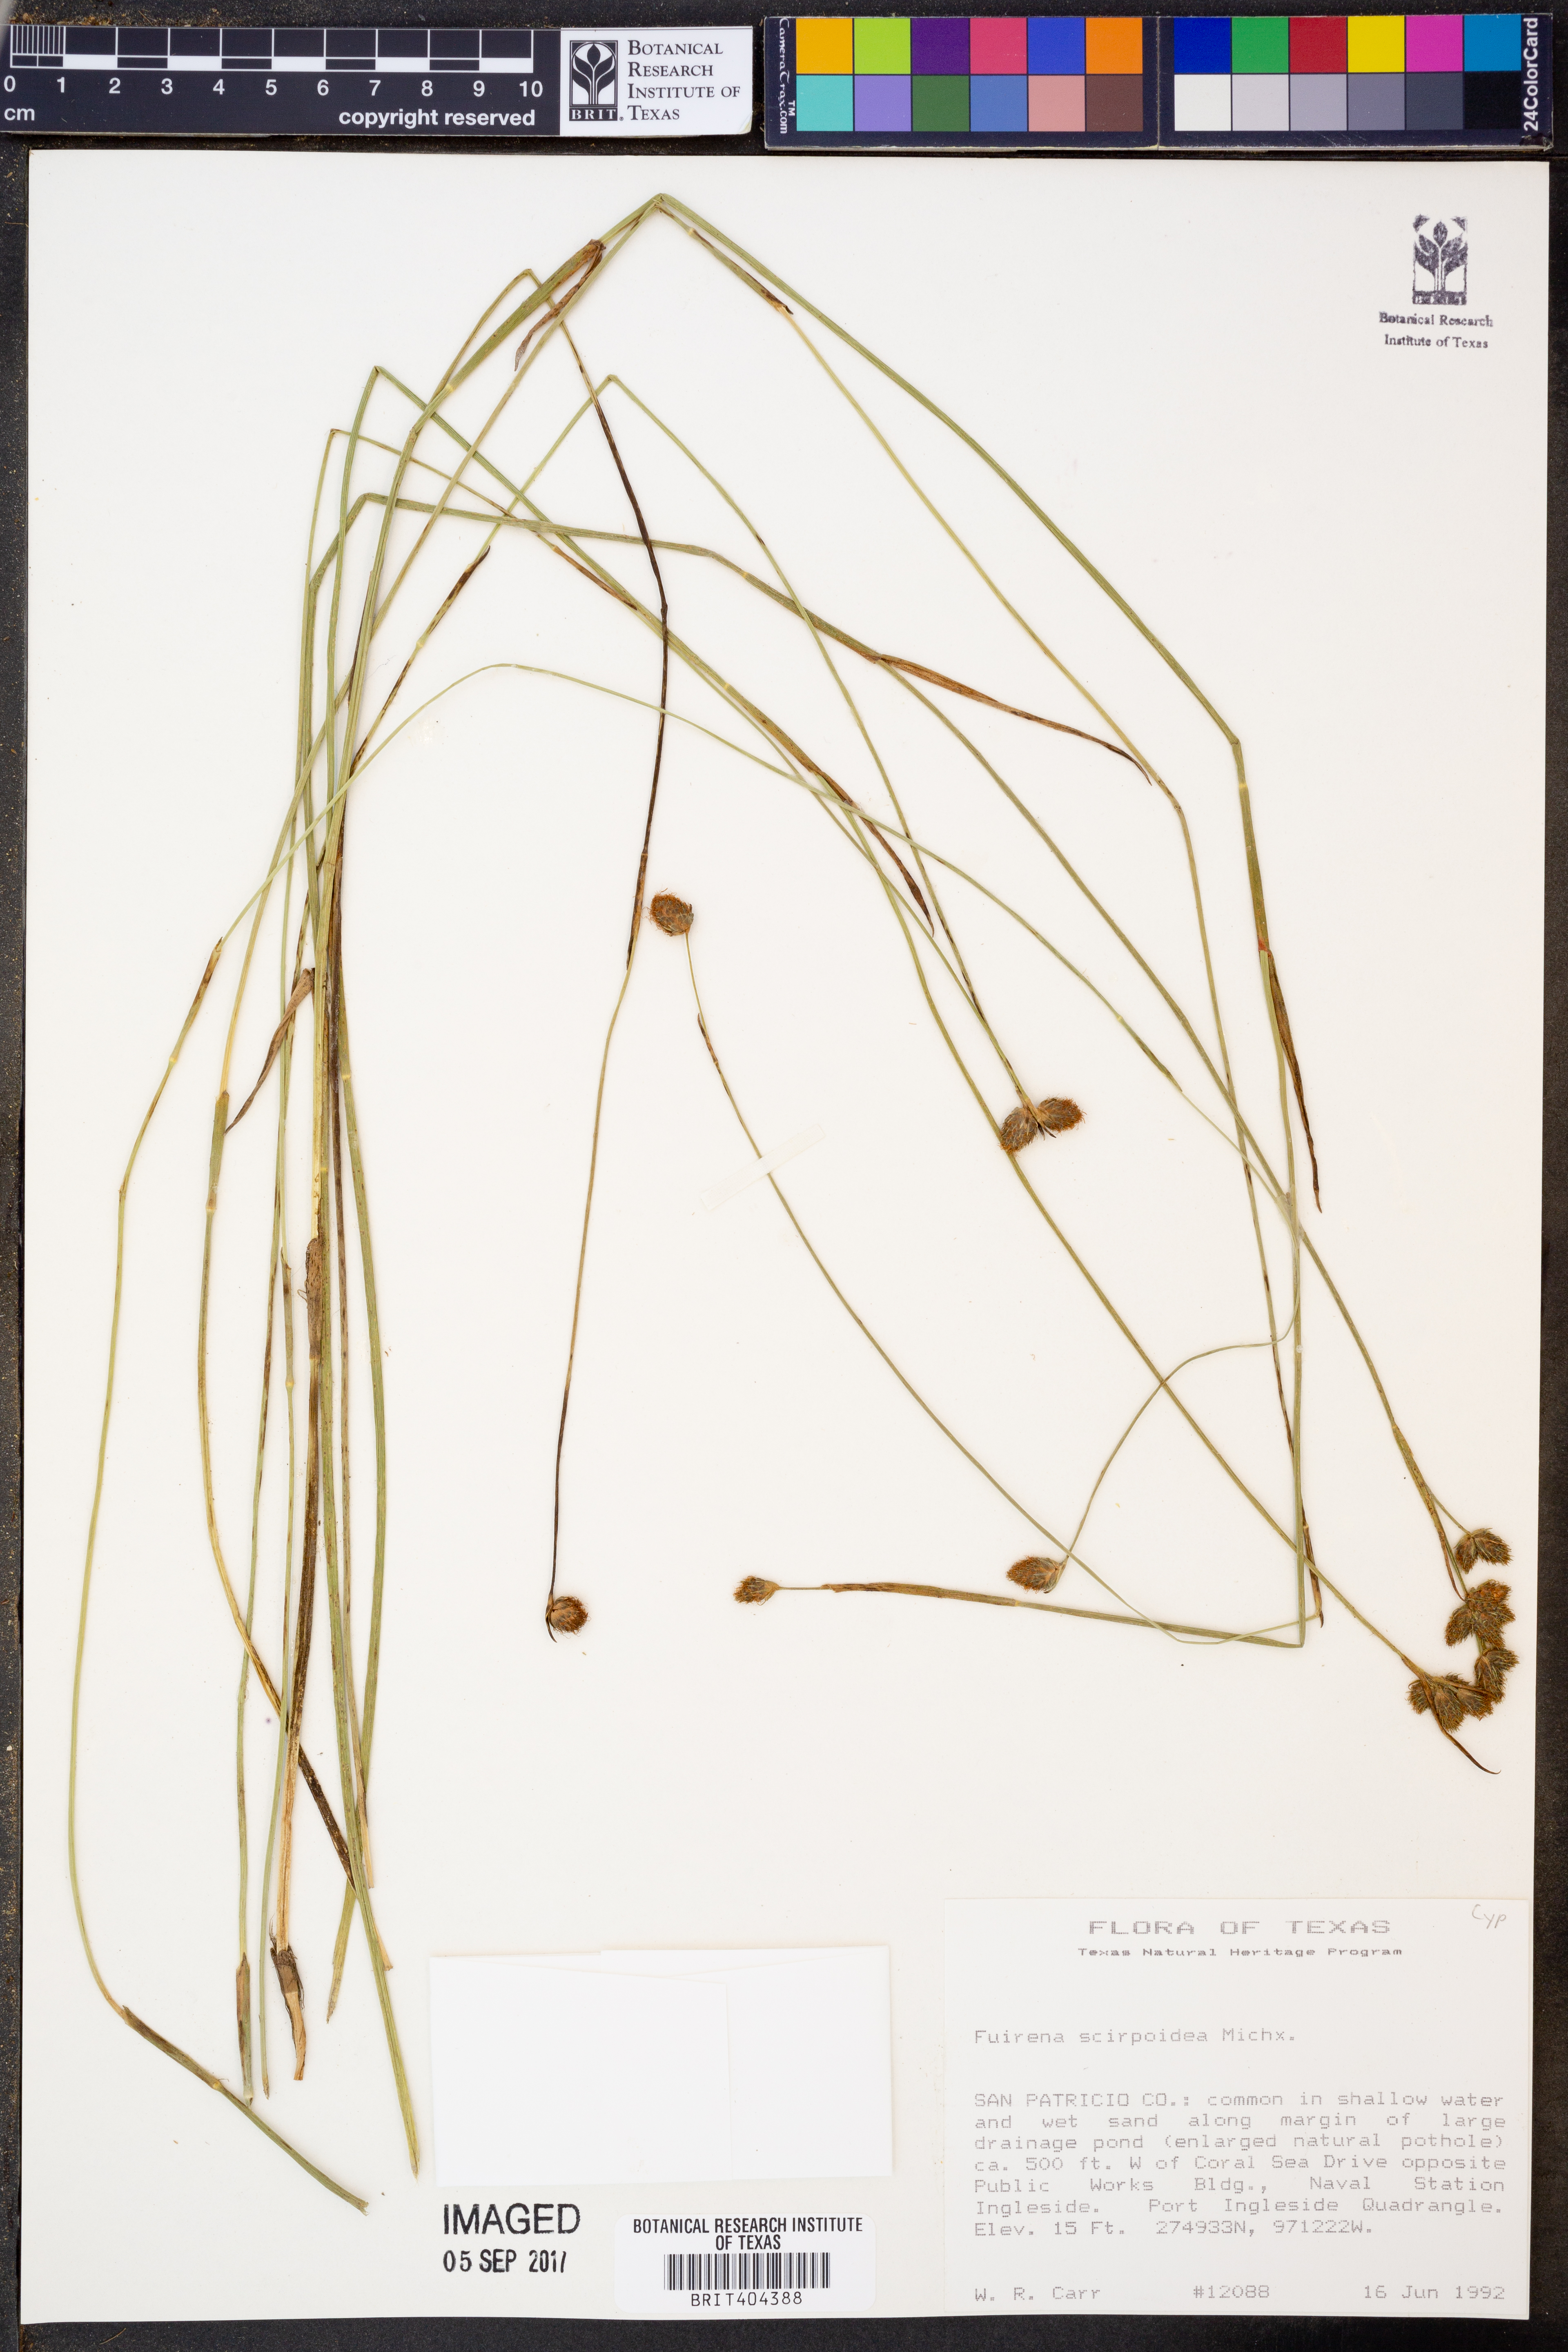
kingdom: Plantae
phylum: Tracheophyta
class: Liliopsida
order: Poales
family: Cyperaceae
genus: Fuirena
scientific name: Fuirena scirpoidea
